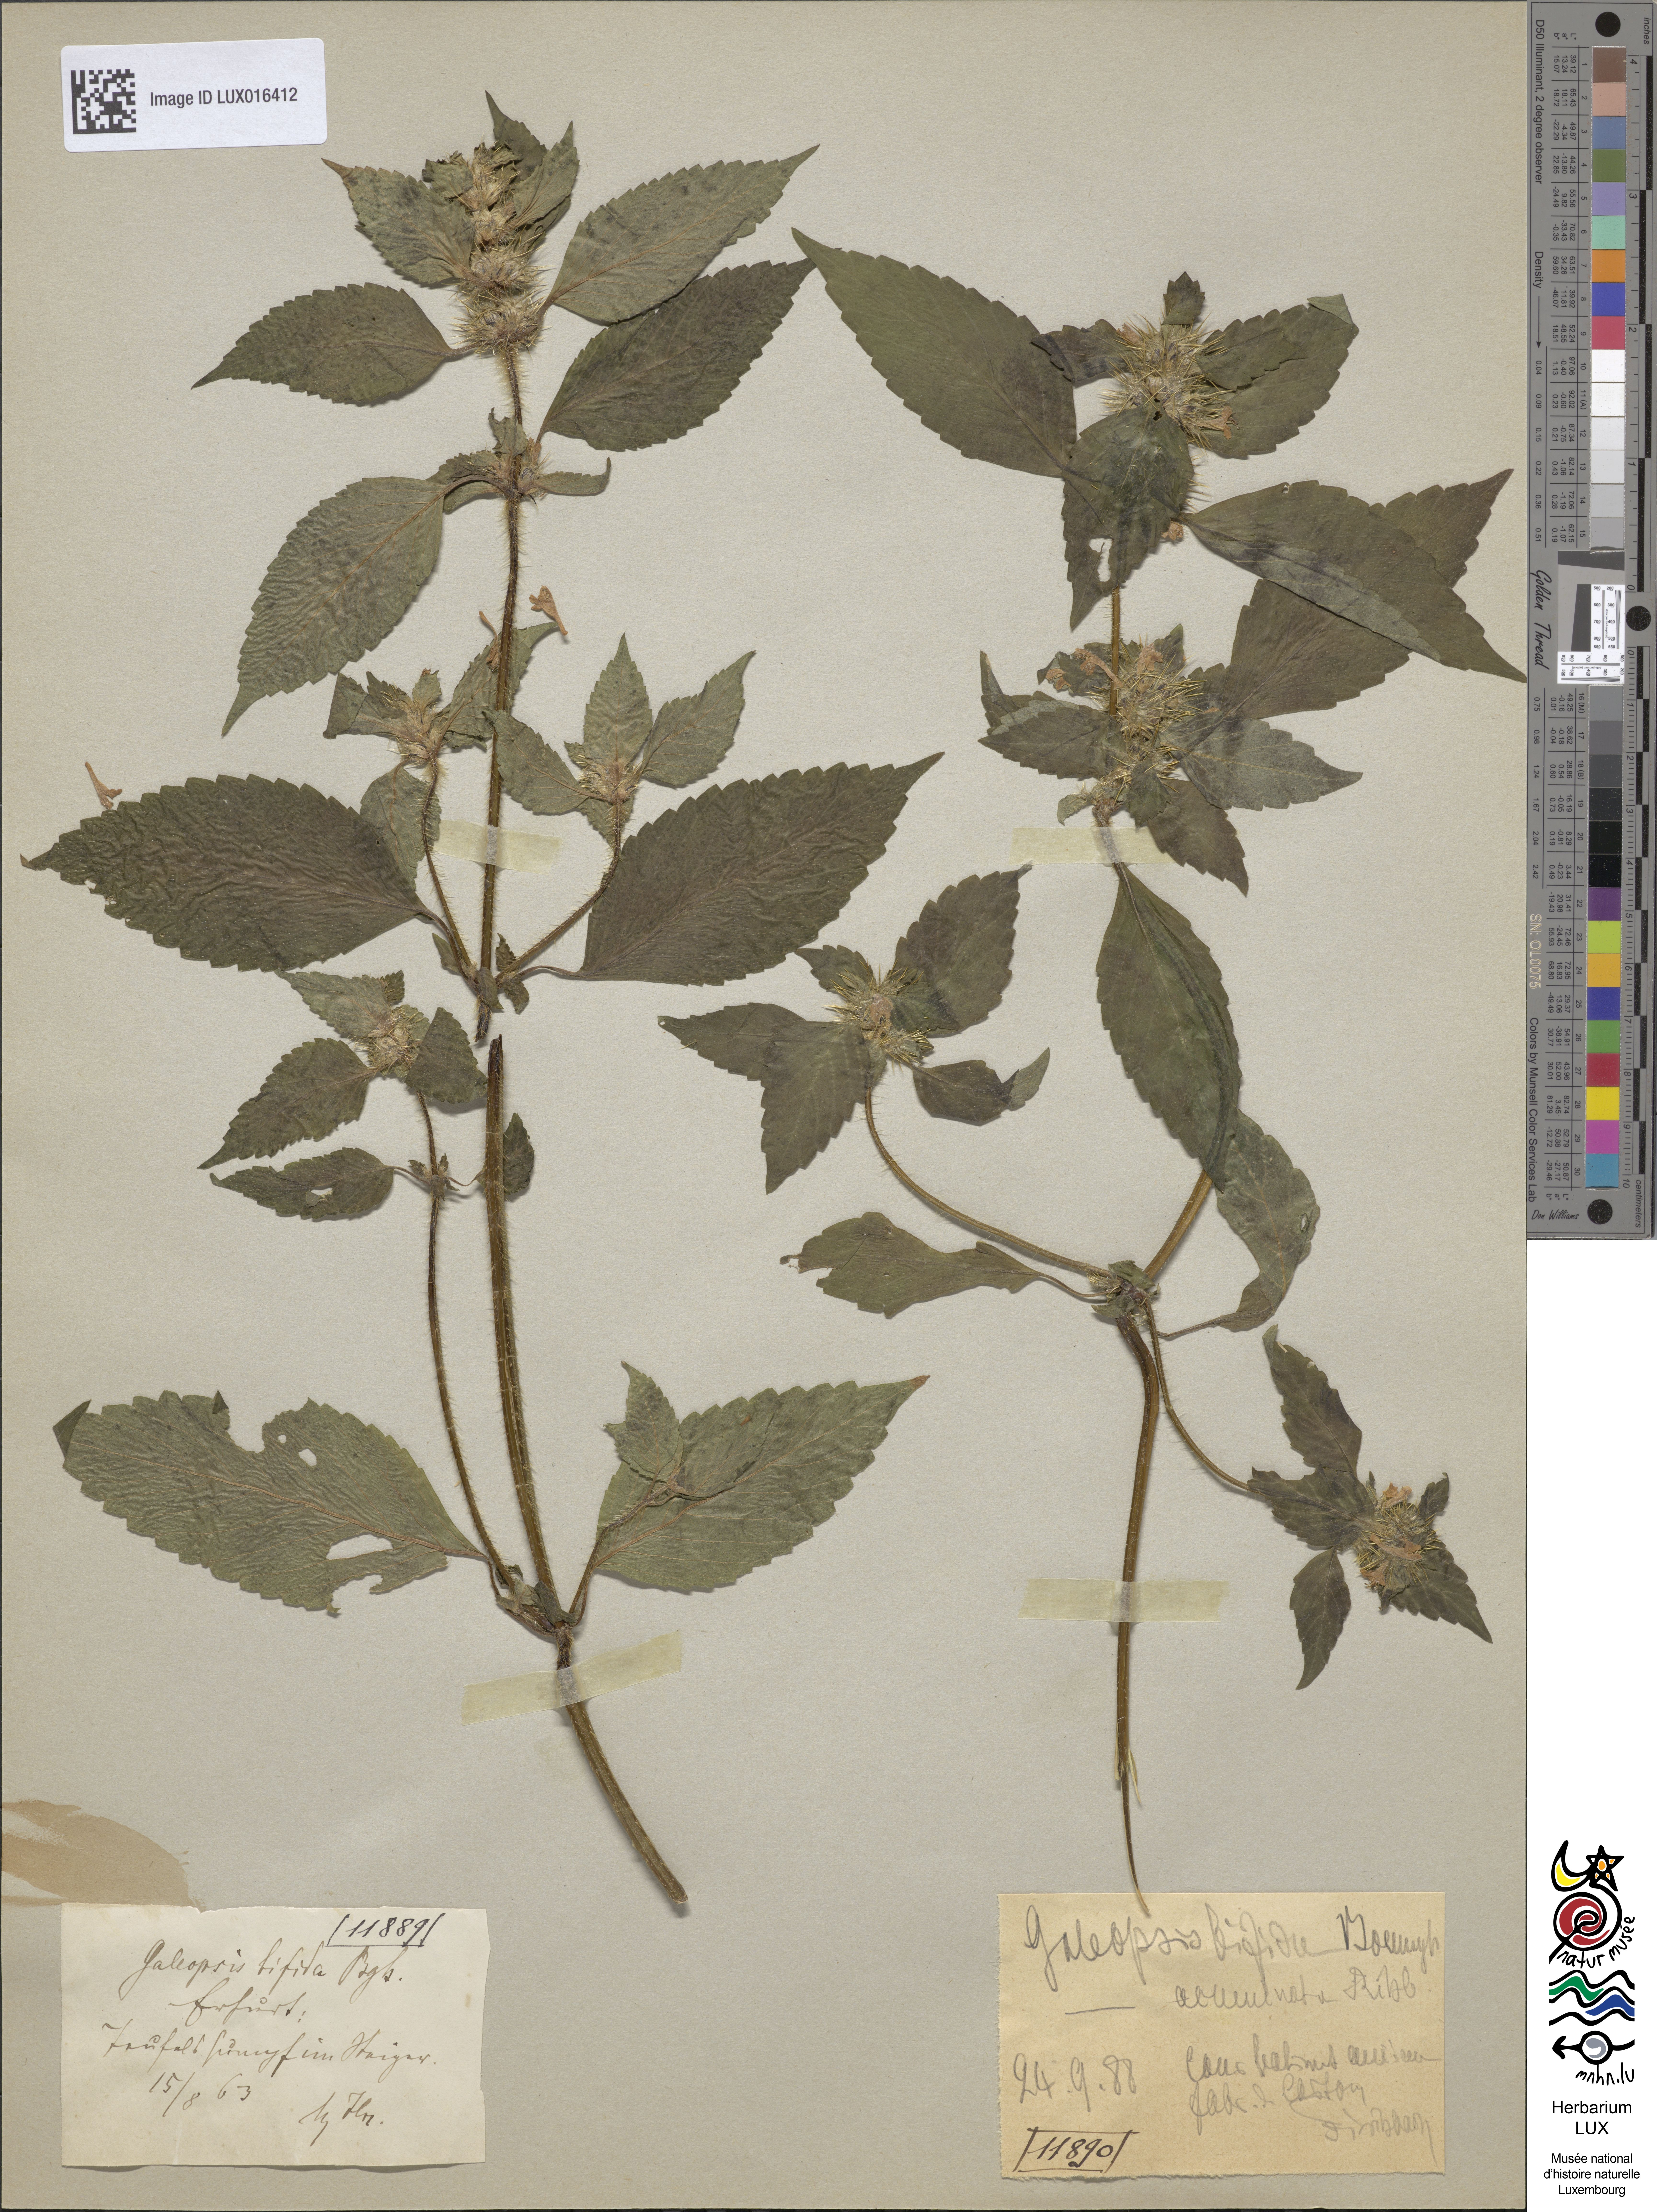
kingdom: Plantae
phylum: Tracheophyta
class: Magnoliopsida
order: Lamiales
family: Lamiaceae
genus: Galeopsis
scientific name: Galeopsis bifida
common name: Bifid hemp-nettle
